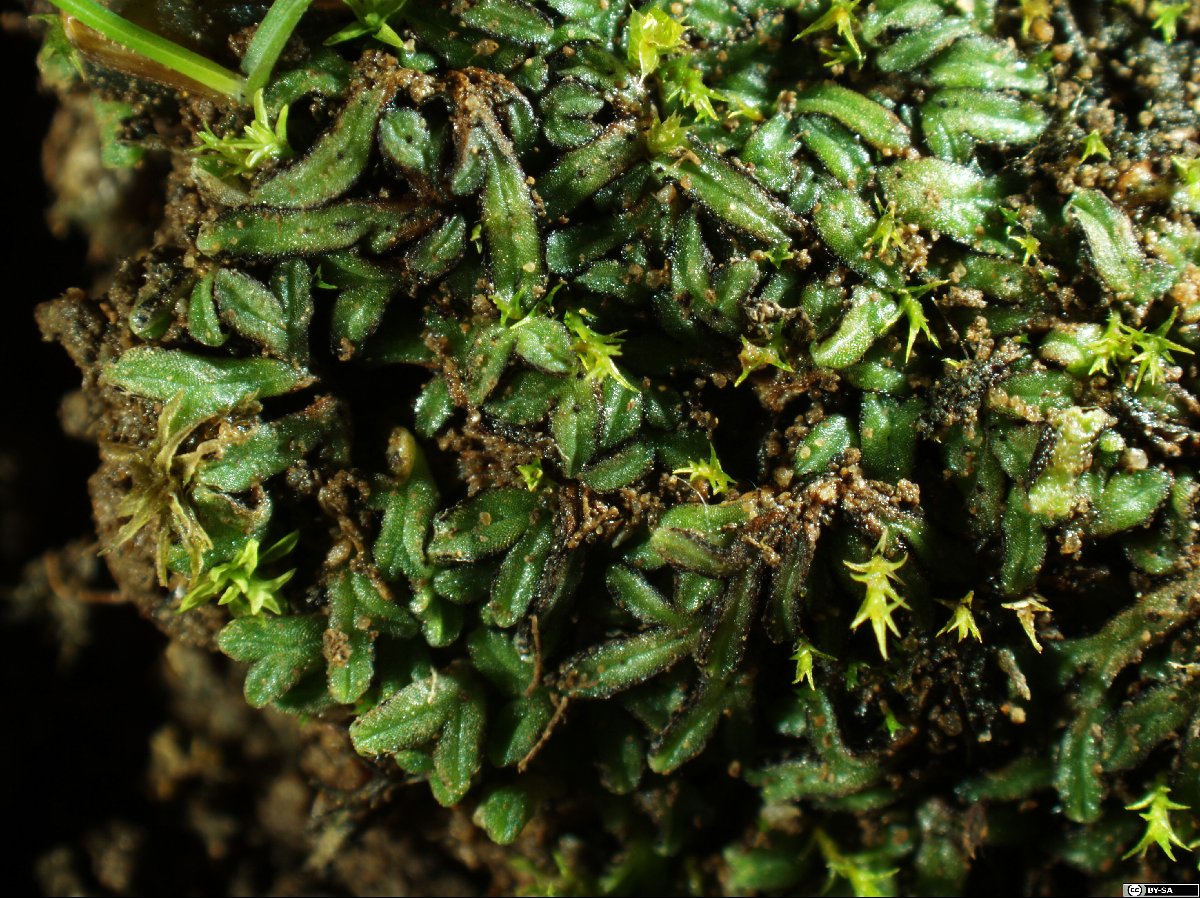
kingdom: Plantae
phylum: Marchantiophyta
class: Marchantiopsida
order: Marchantiales
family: Ricciaceae
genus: Riccia
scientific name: Riccia nigrella
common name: Black crystalwort
